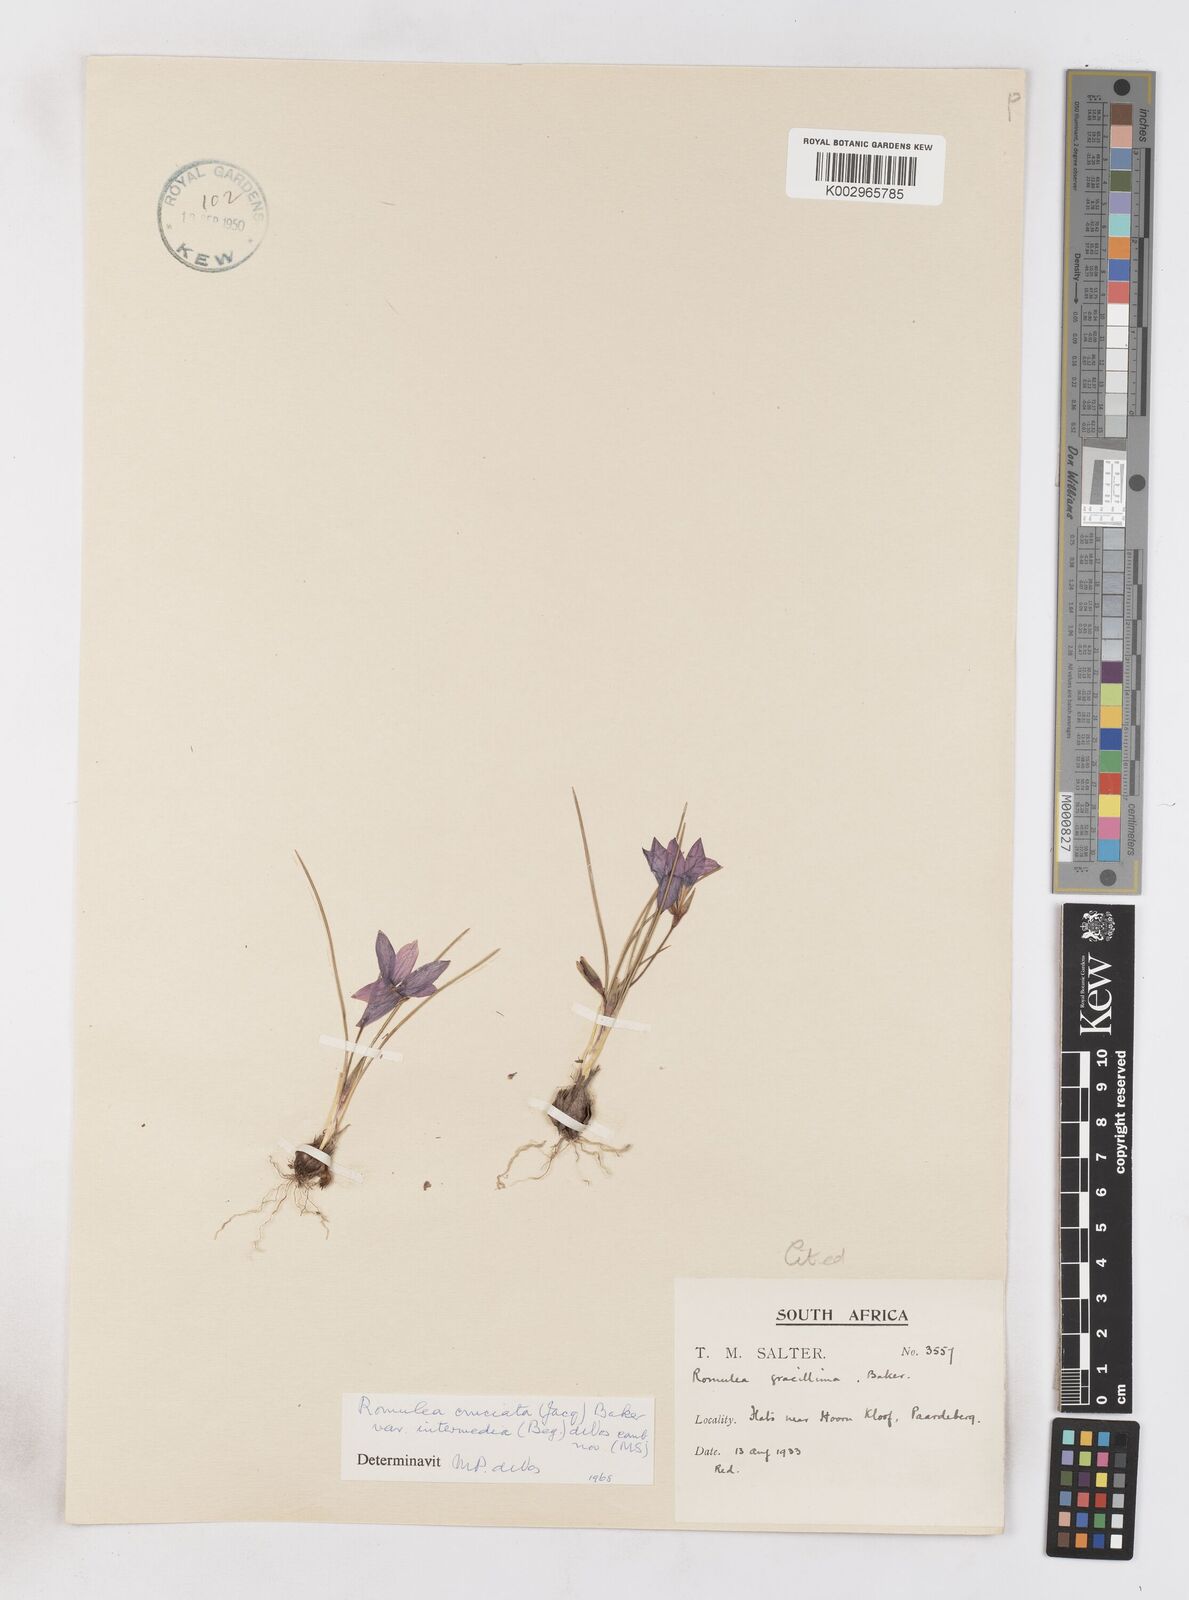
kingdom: Plantae
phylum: Tracheophyta
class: Liliopsida
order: Asparagales
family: Iridaceae
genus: Romulea
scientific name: Romulea cruciata
